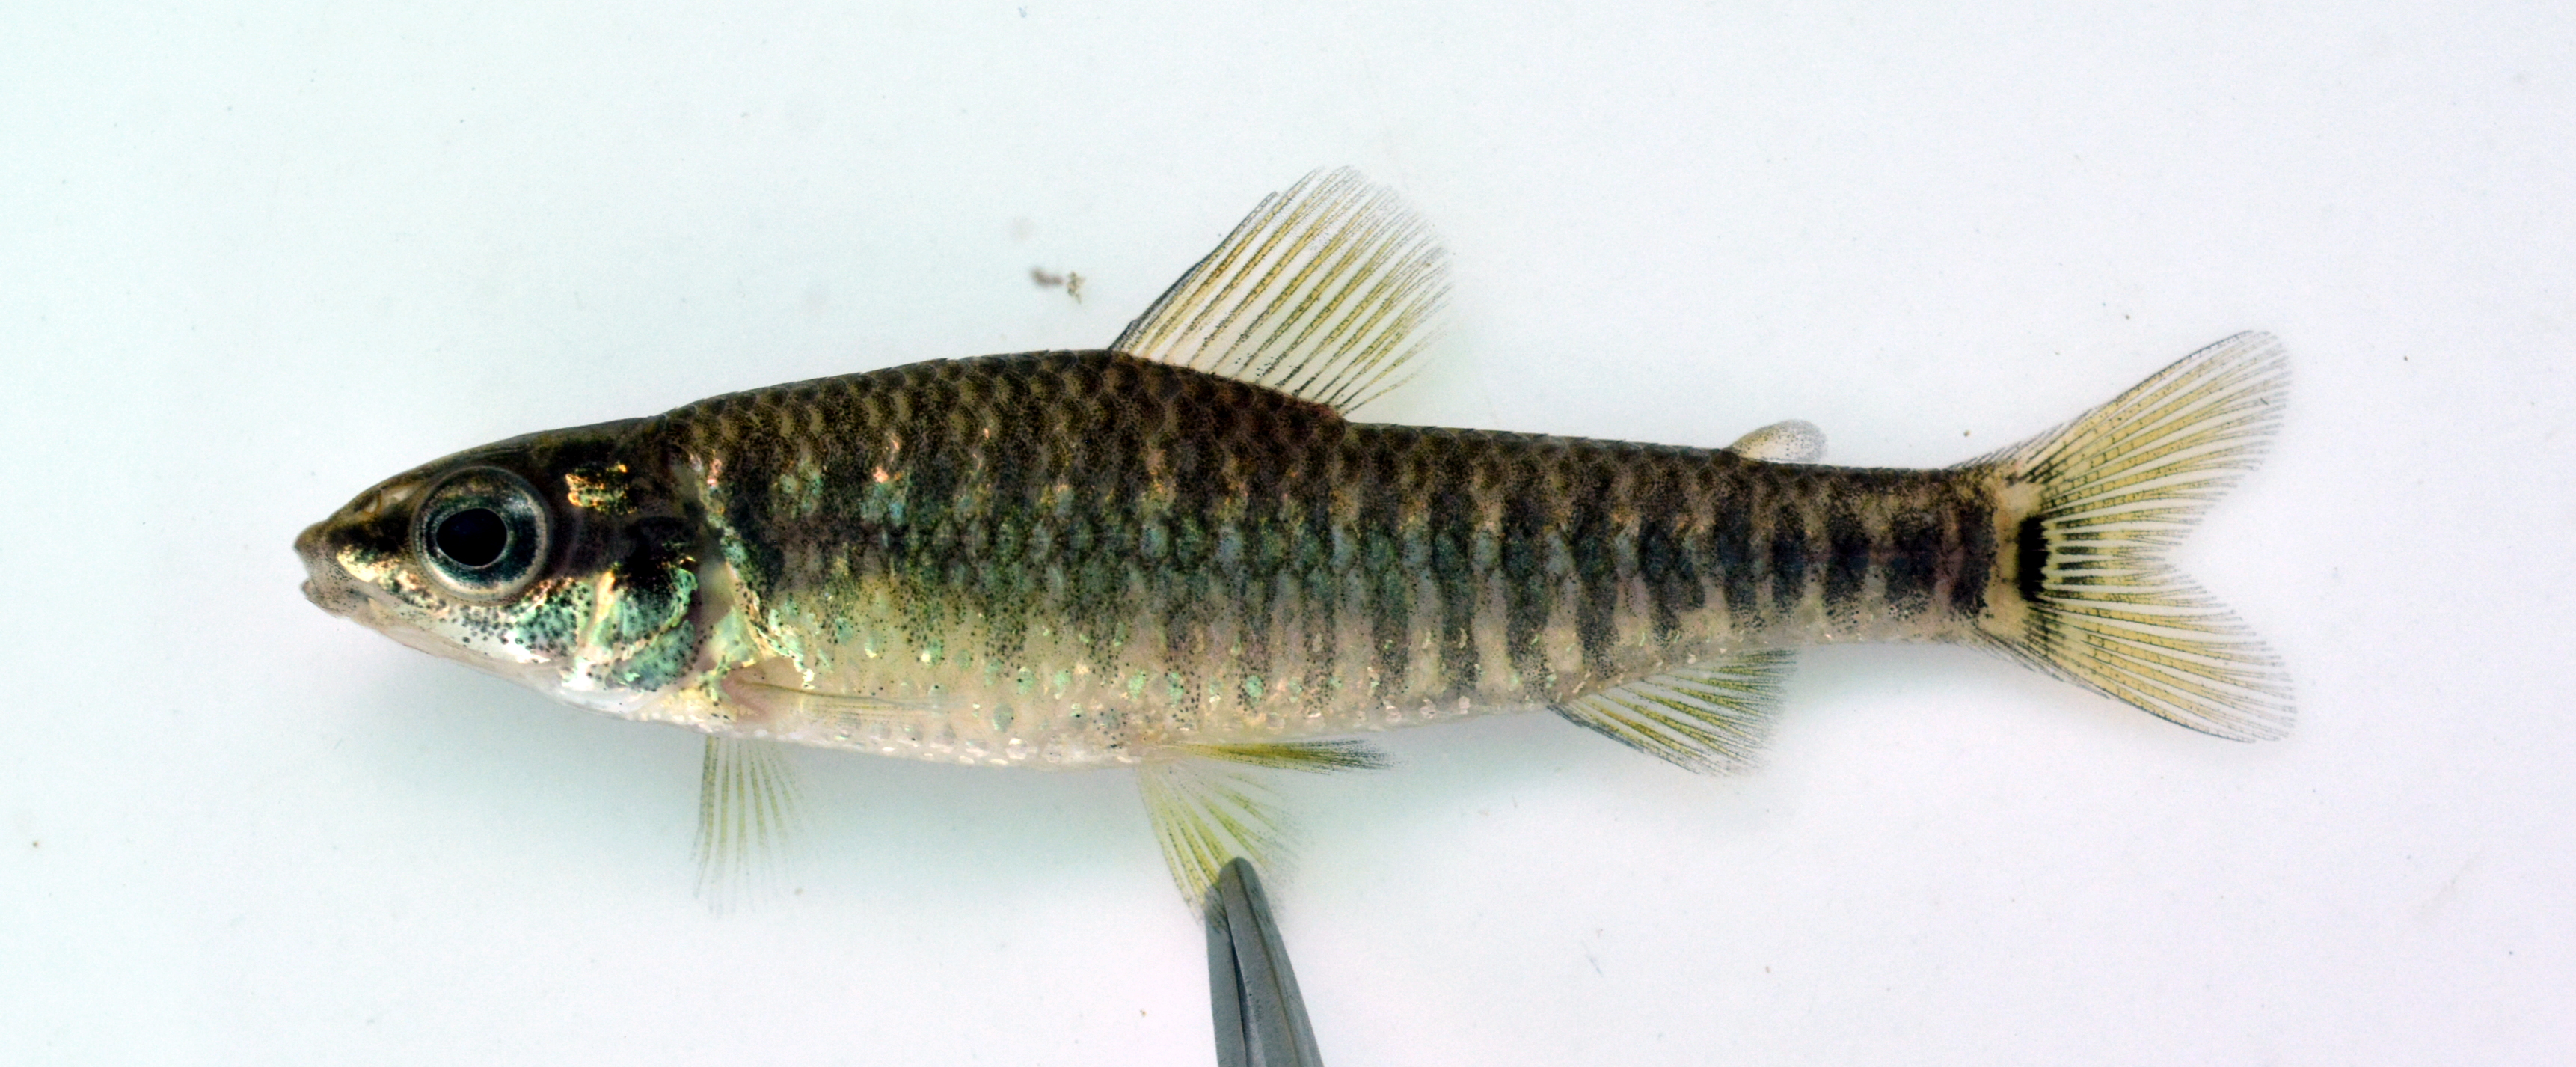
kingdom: Animalia
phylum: Chordata
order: Characiformes
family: Distichodontidae
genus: Nannocharax
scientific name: Nannocharax multifasciatus
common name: Multibar citharine
